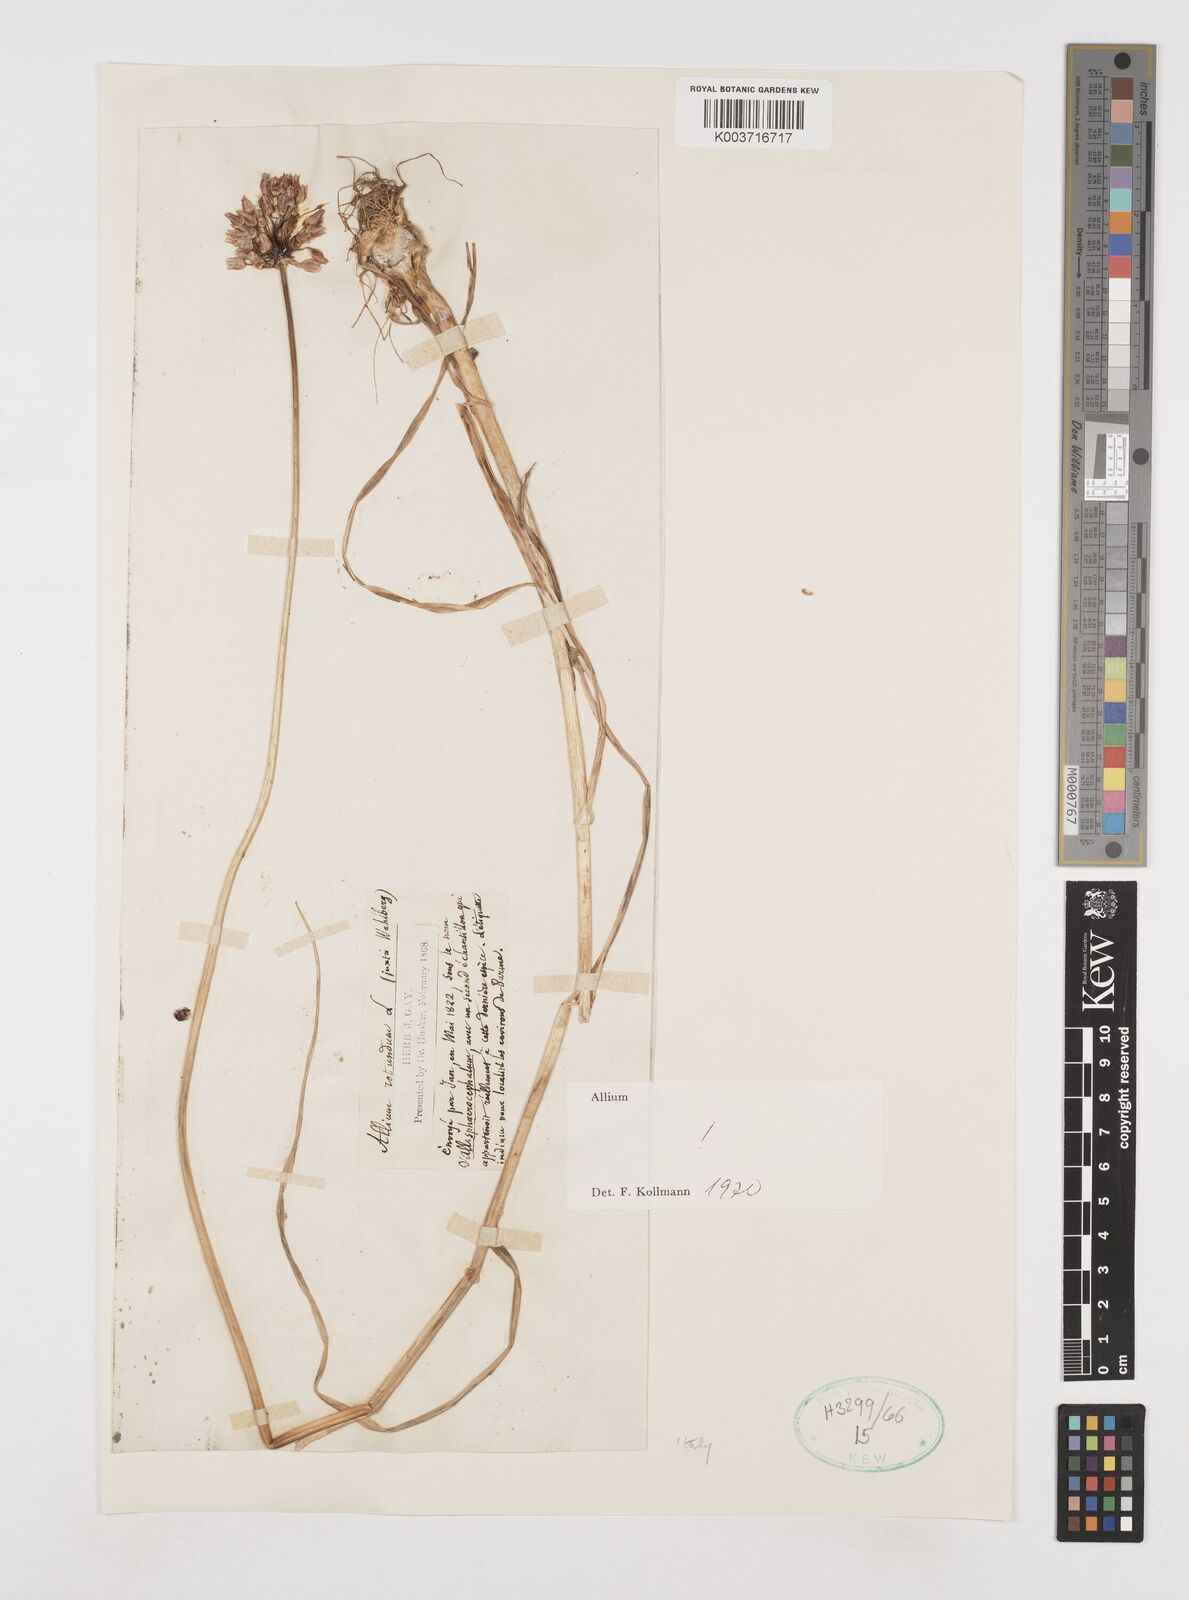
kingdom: Plantae
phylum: Tracheophyta
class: Liliopsida
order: Asparagales
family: Amaryllidaceae
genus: Allium
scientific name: Allium rotundum
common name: Sand leek
